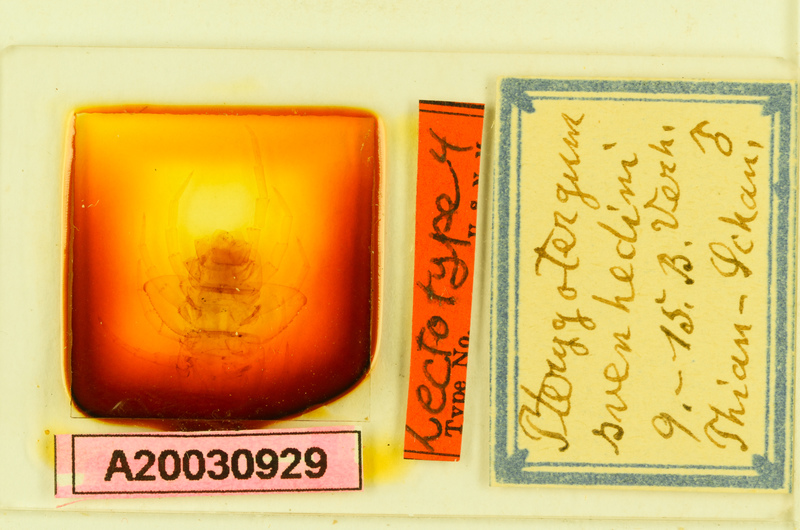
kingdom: Animalia
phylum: Arthropoda
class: Chilopoda
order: Lithobiomorpha
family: Lithobiidae
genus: Pterygotergum
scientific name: Pterygotergum svenhedini
